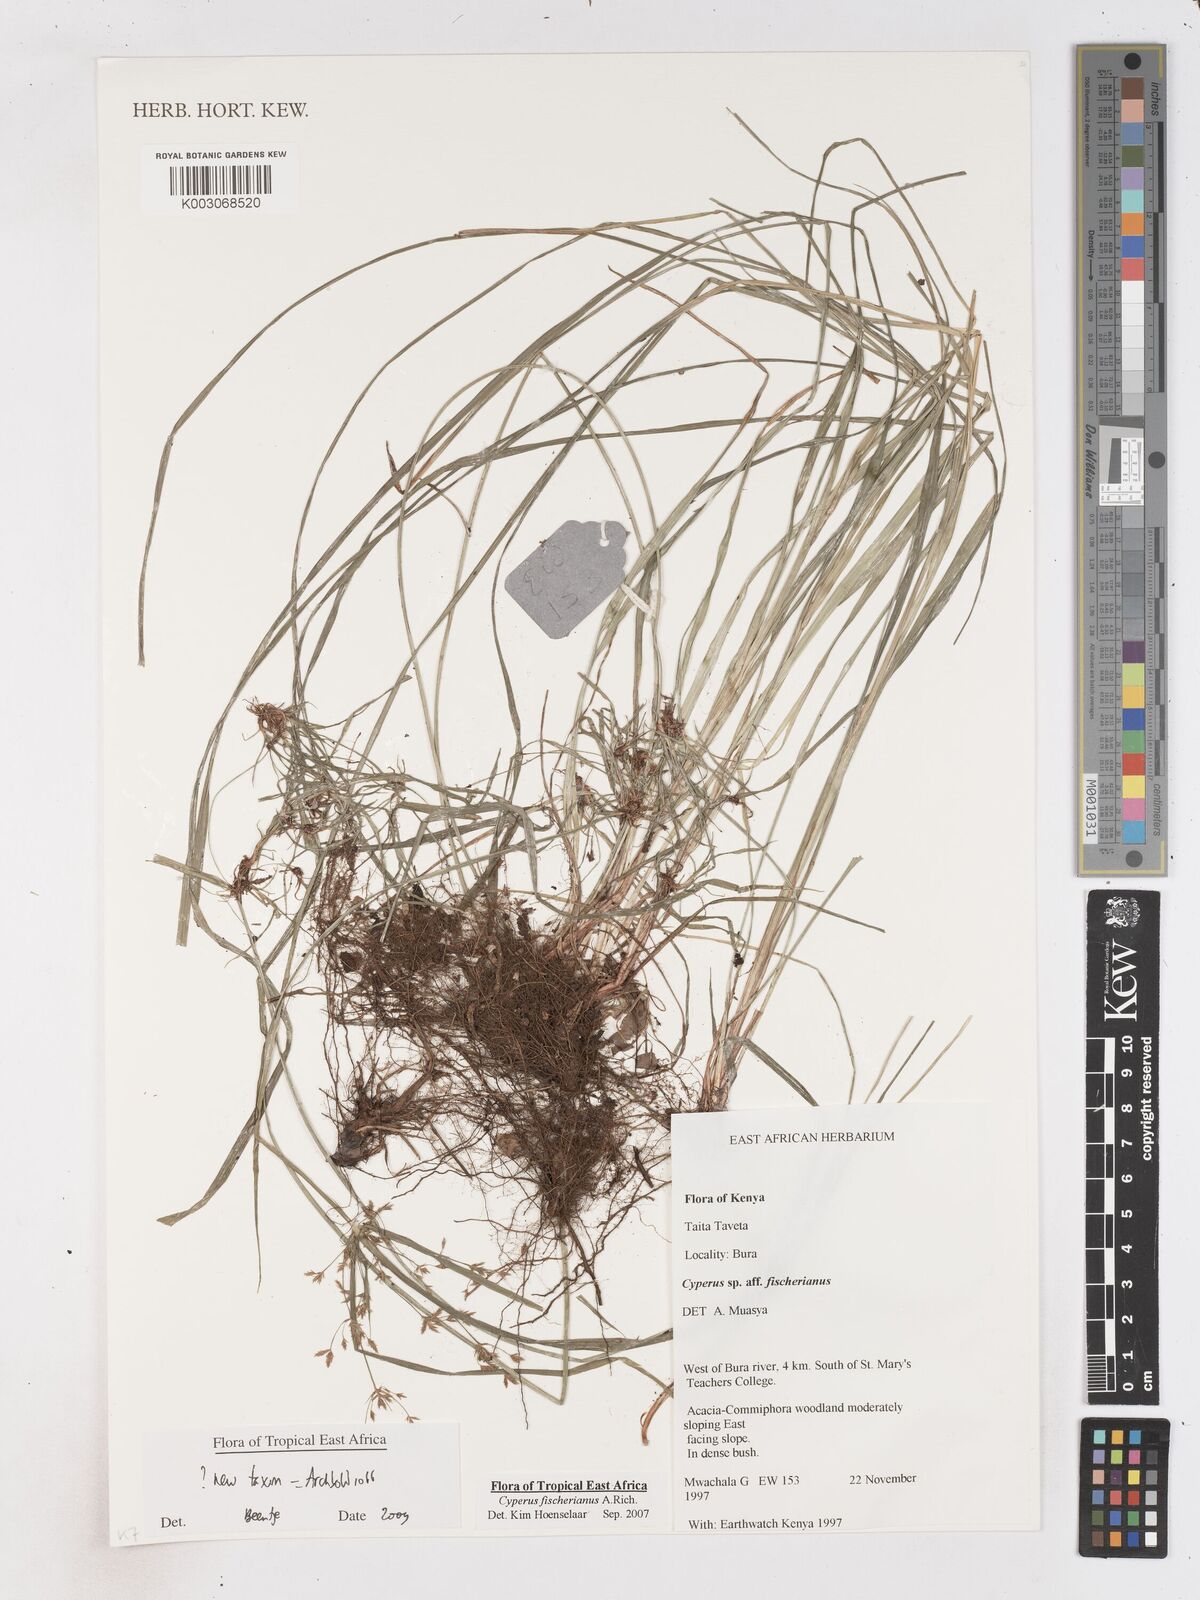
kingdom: Plantae
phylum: Tracheophyta
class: Liliopsida
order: Poales
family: Cyperaceae
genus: Cyperus
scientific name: Cyperus glaucophyllus
